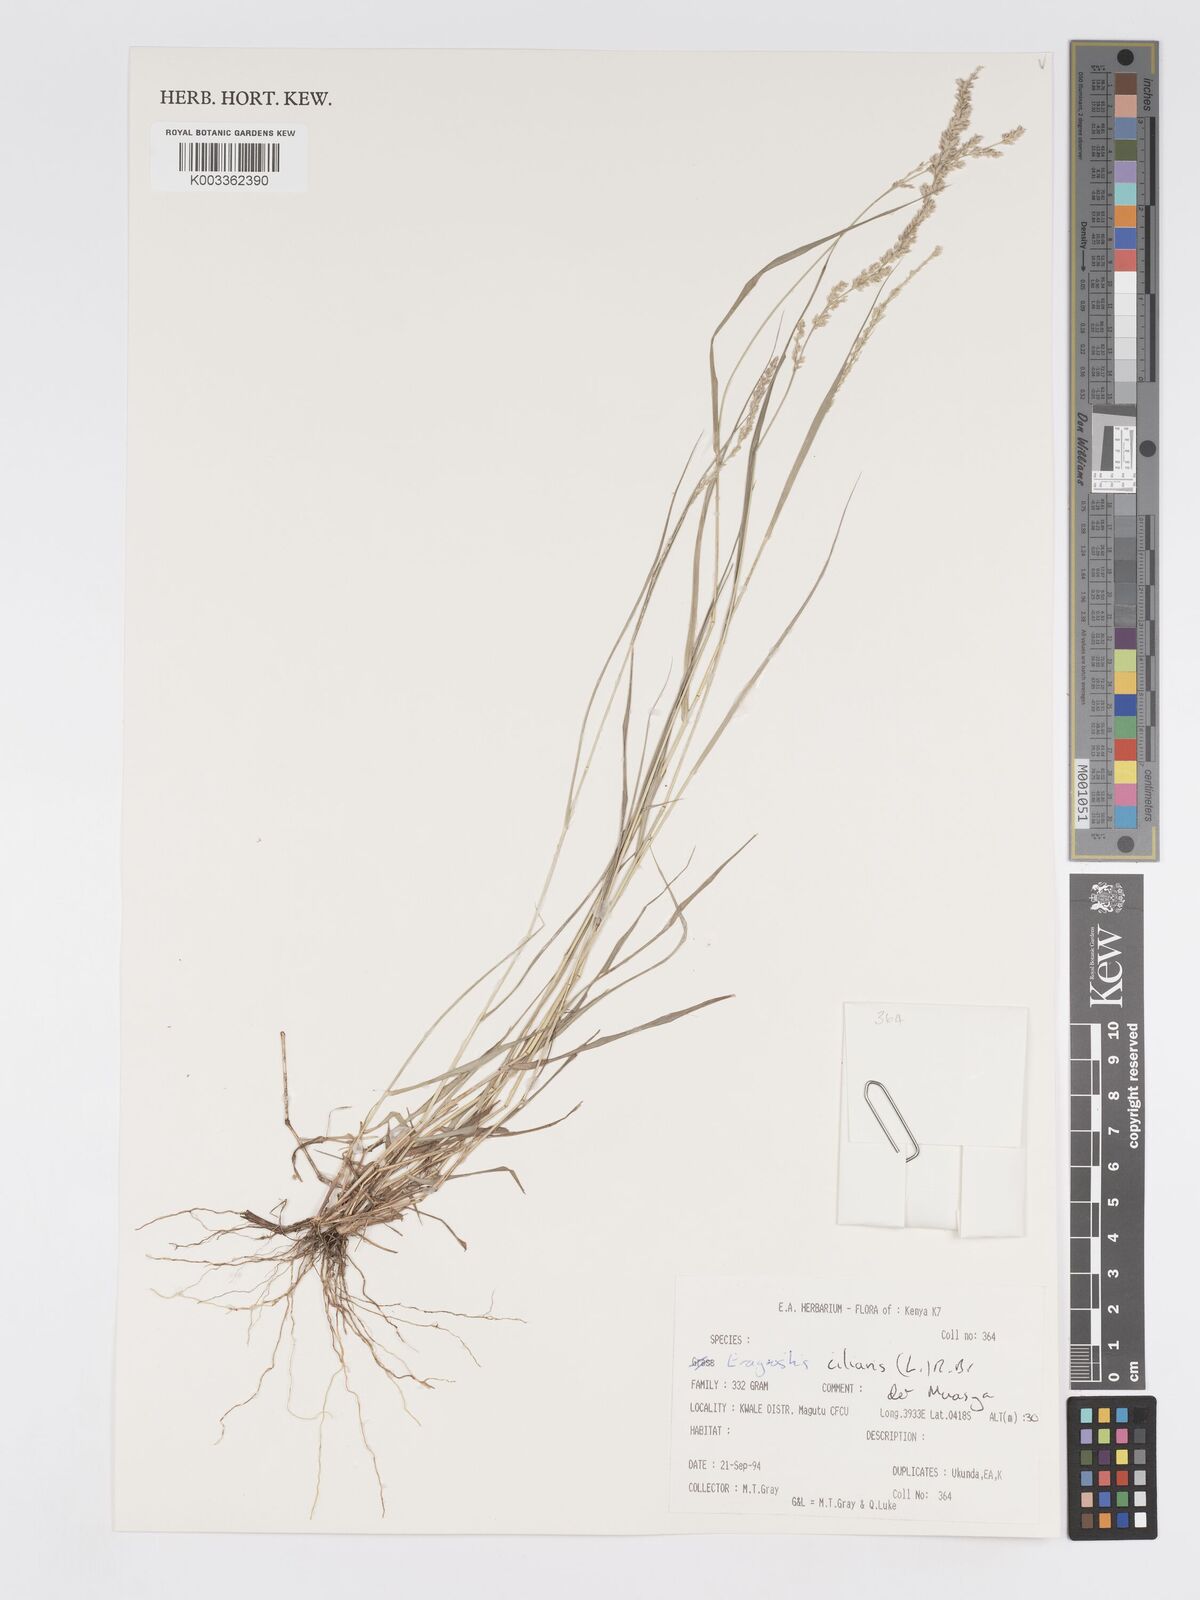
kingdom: Plantae
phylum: Tracheophyta
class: Liliopsida
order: Poales
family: Poaceae
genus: Eragrostis
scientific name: Eragrostis ciliaris
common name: Gophertail lovegrass
